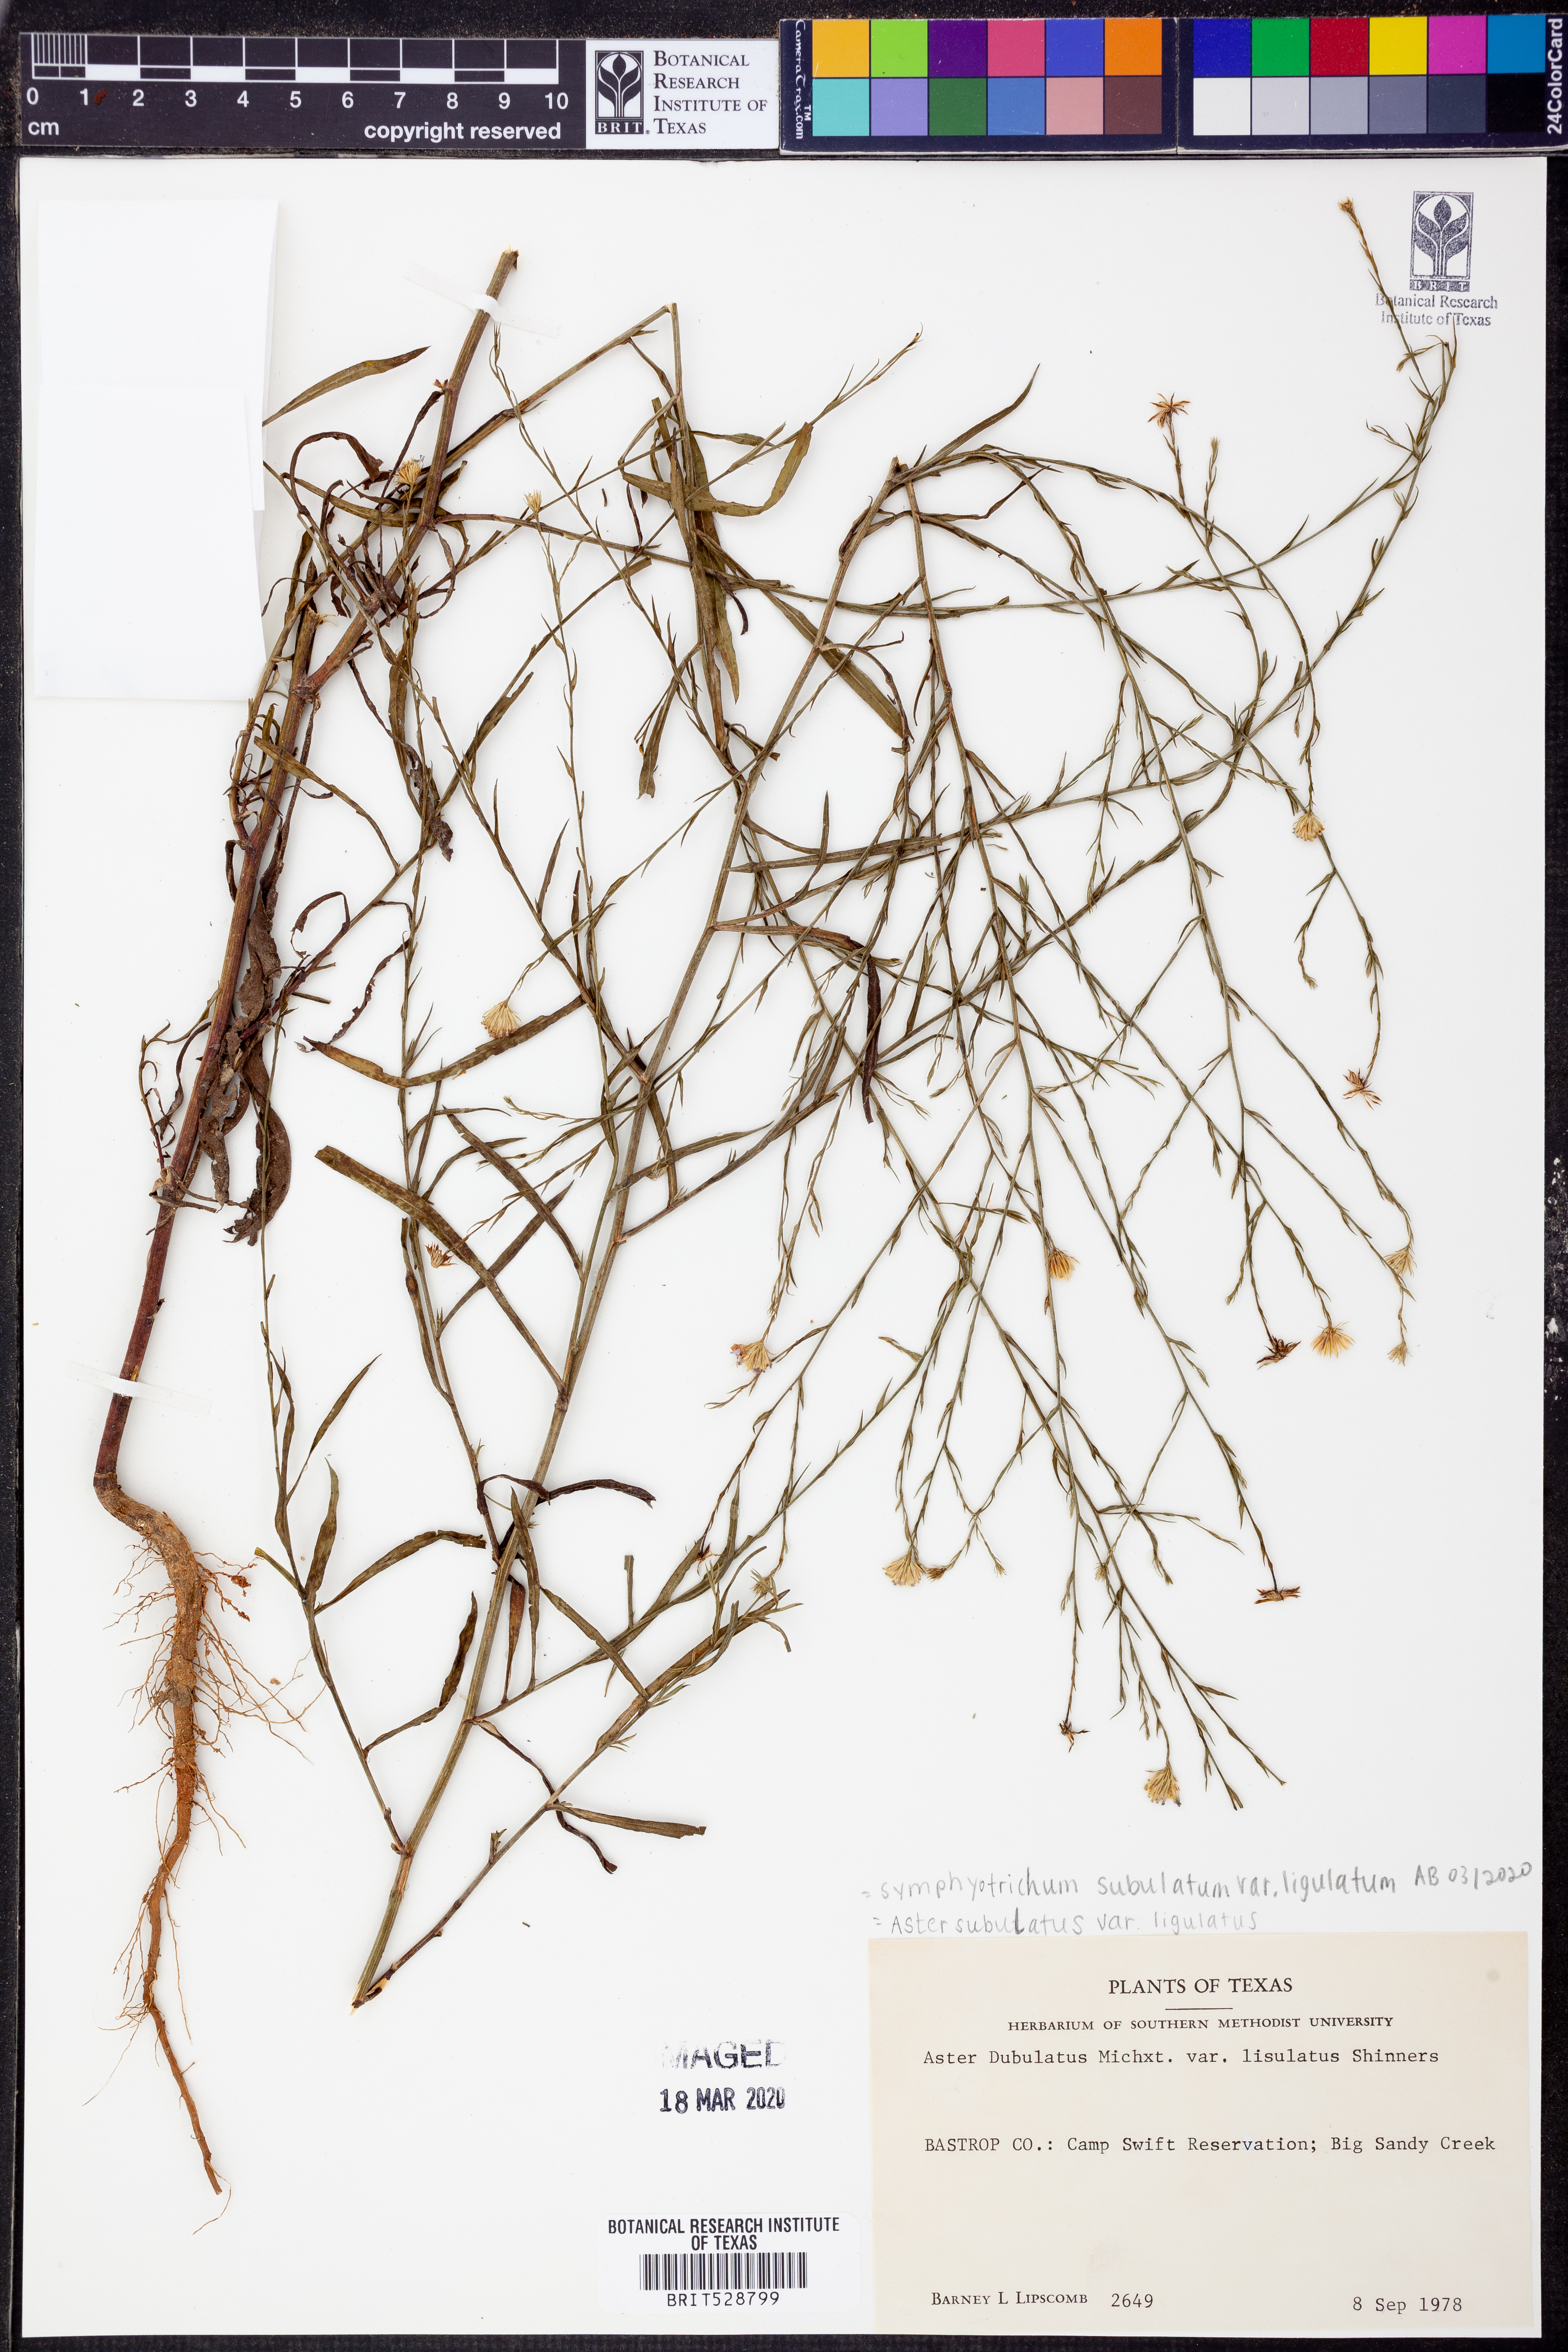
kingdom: Plantae
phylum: Tracheophyta
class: Magnoliopsida
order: Asterales
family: Asteraceae
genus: Symphyotrichum
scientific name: Symphyotrichum divaricatum
